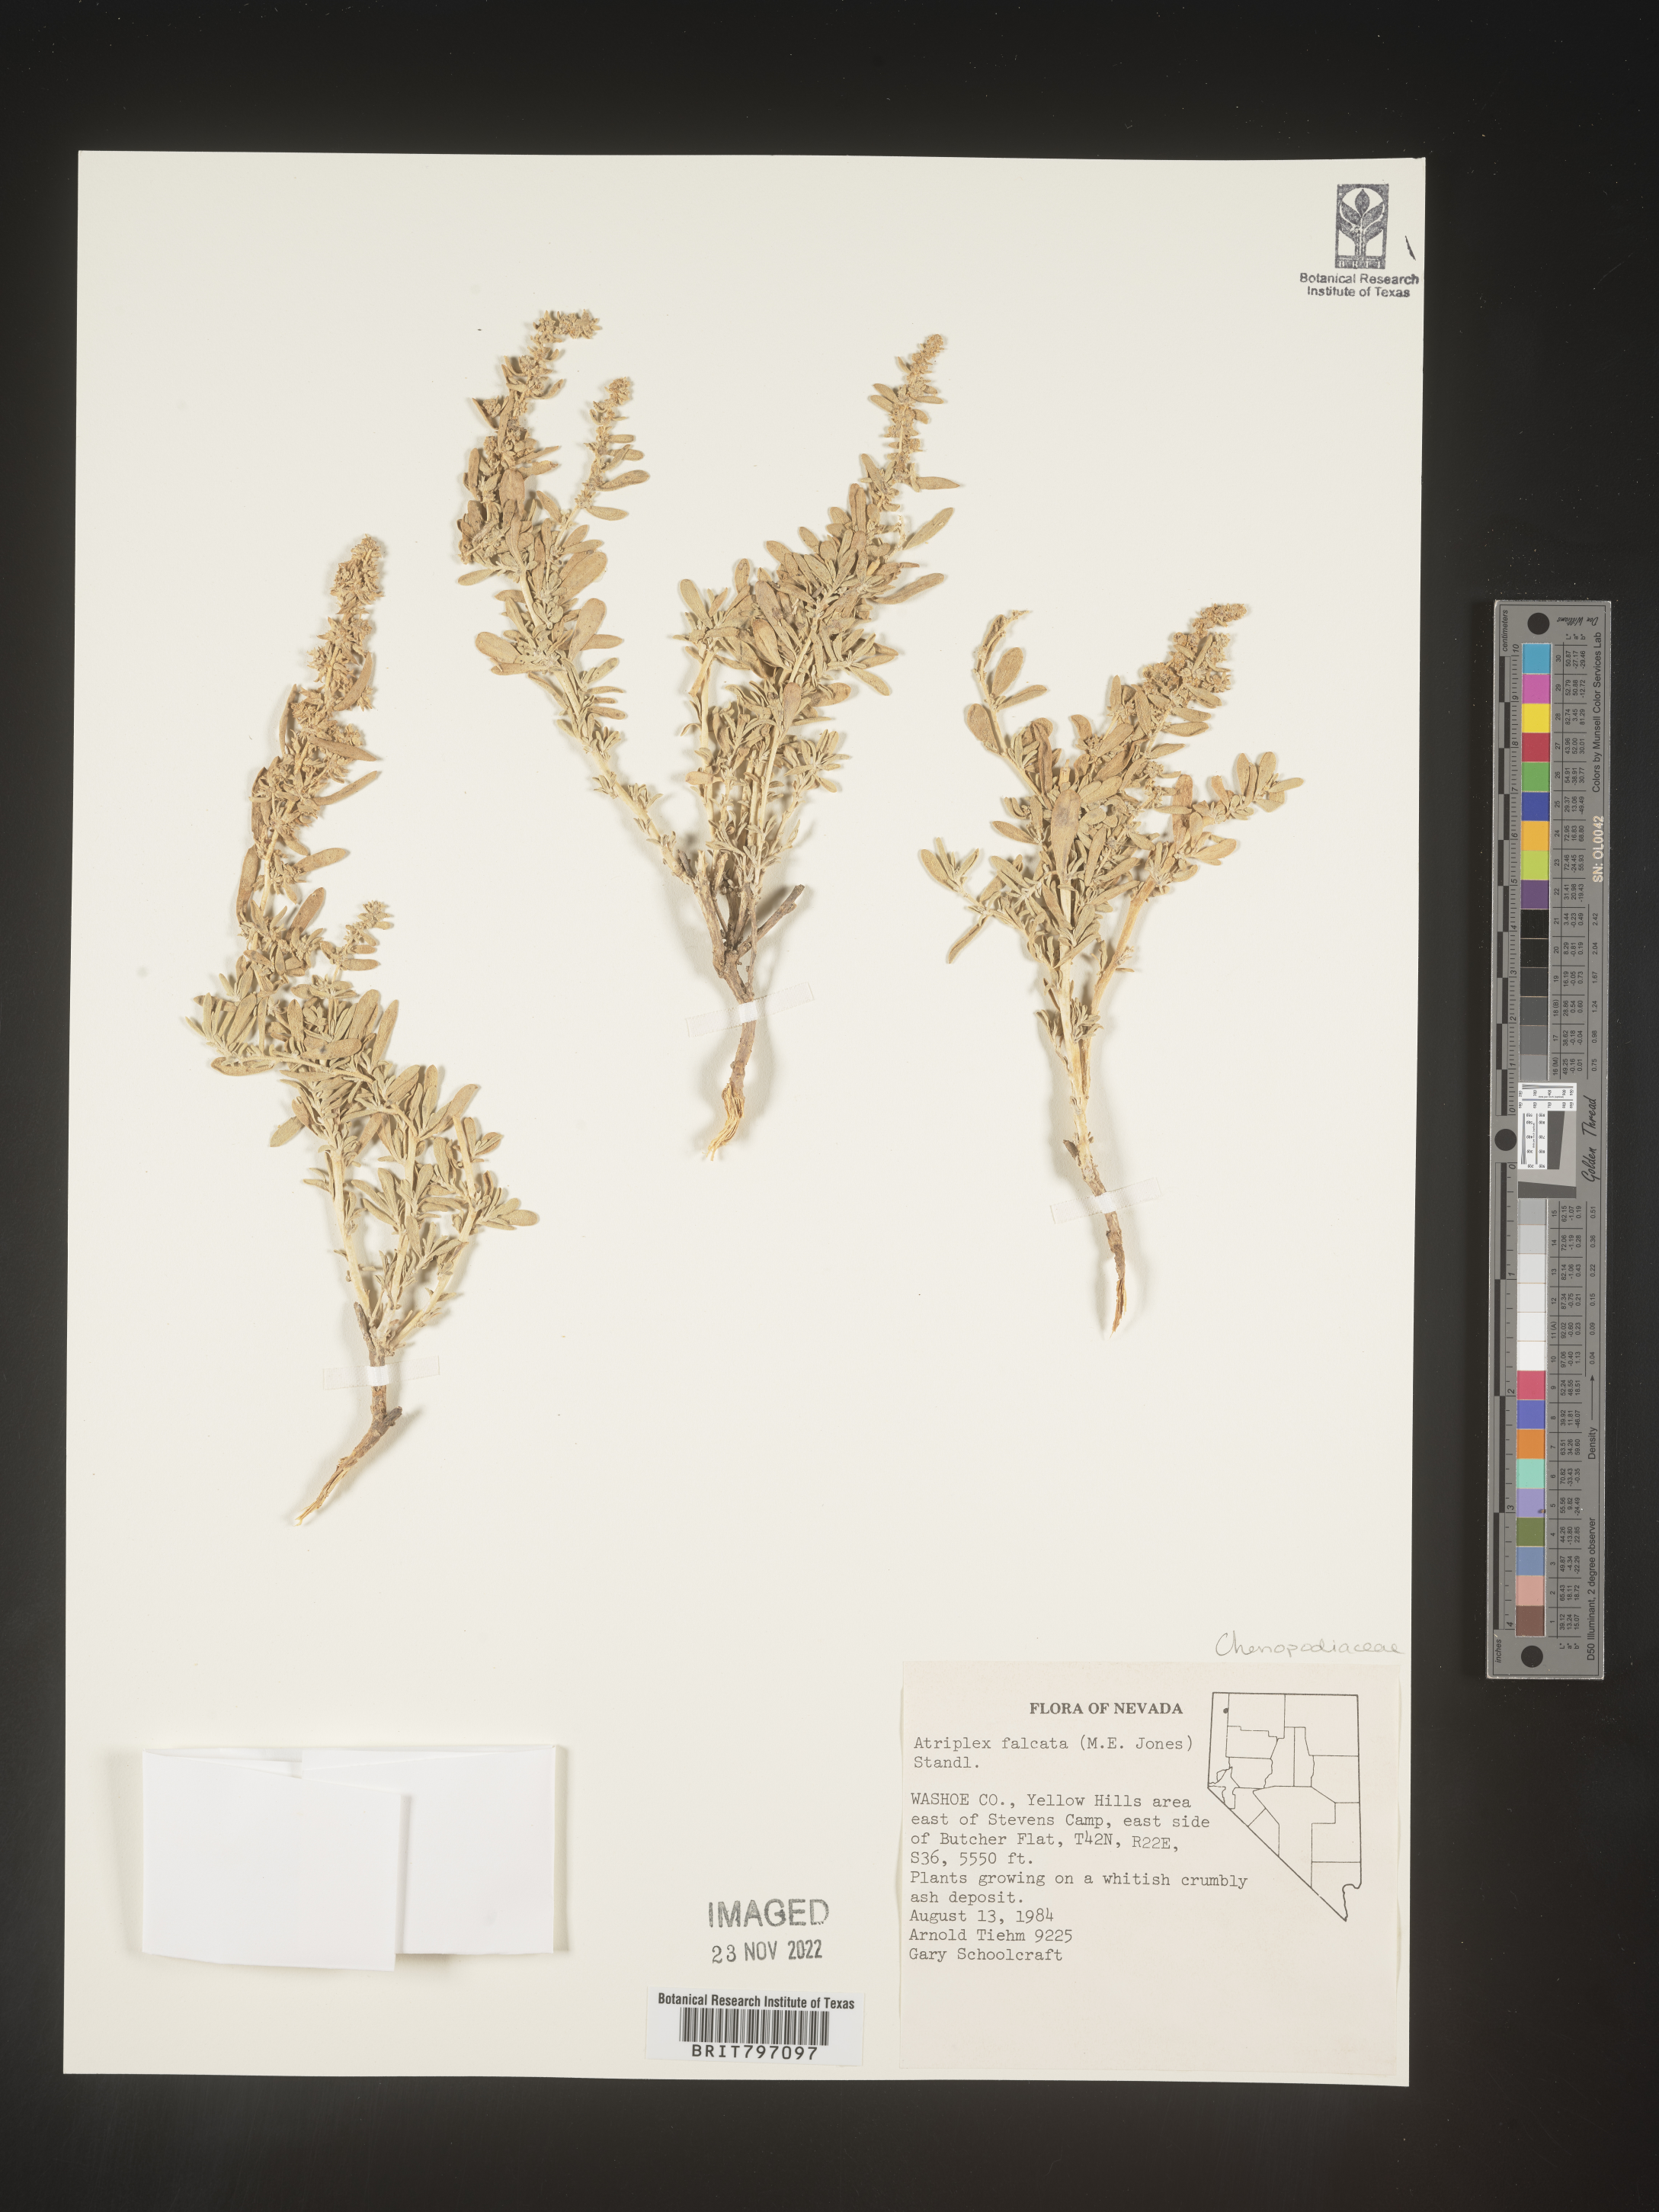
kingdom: Plantae
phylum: Tracheophyta
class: Magnoliopsida
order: Caryophyllales
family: Amaranthaceae
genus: Atriplex
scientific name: Atriplex
